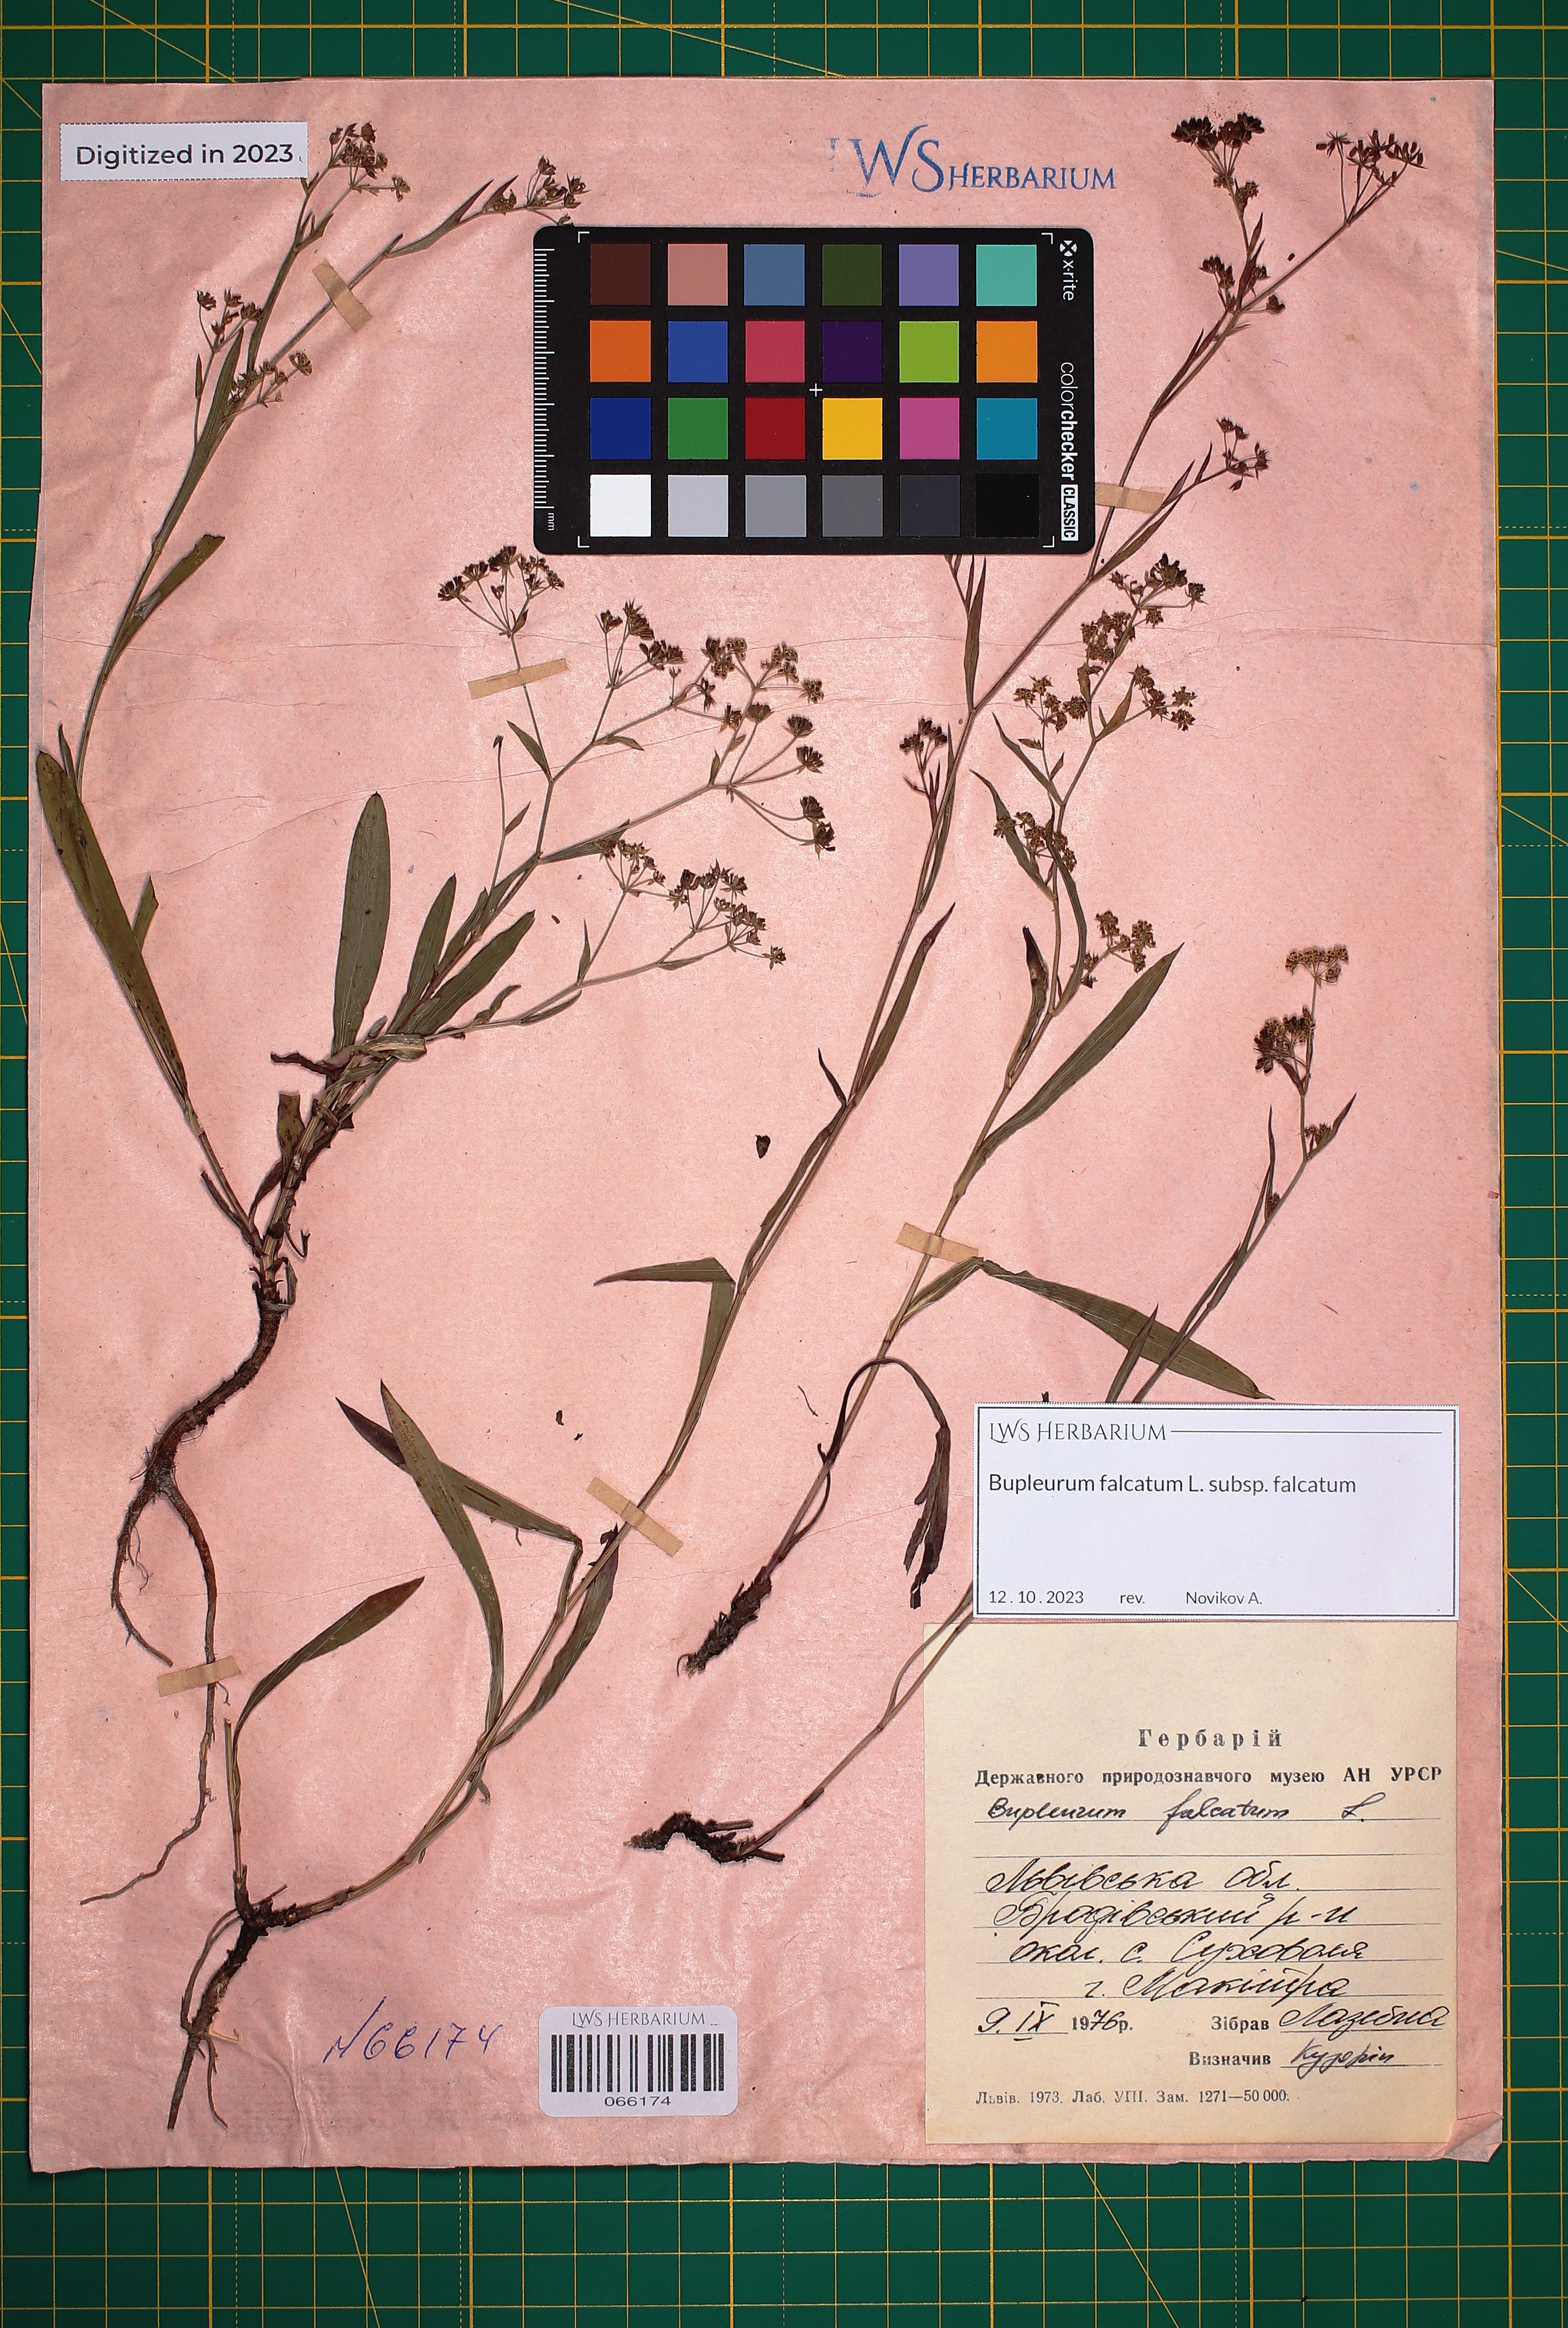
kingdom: Plantae
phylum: Tracheophyta
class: Magnoliopsida
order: Apiales
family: Apiaceae
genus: Bupleurum
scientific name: Bupleurum falcatum
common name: Sickle-leaved hare's-ear
